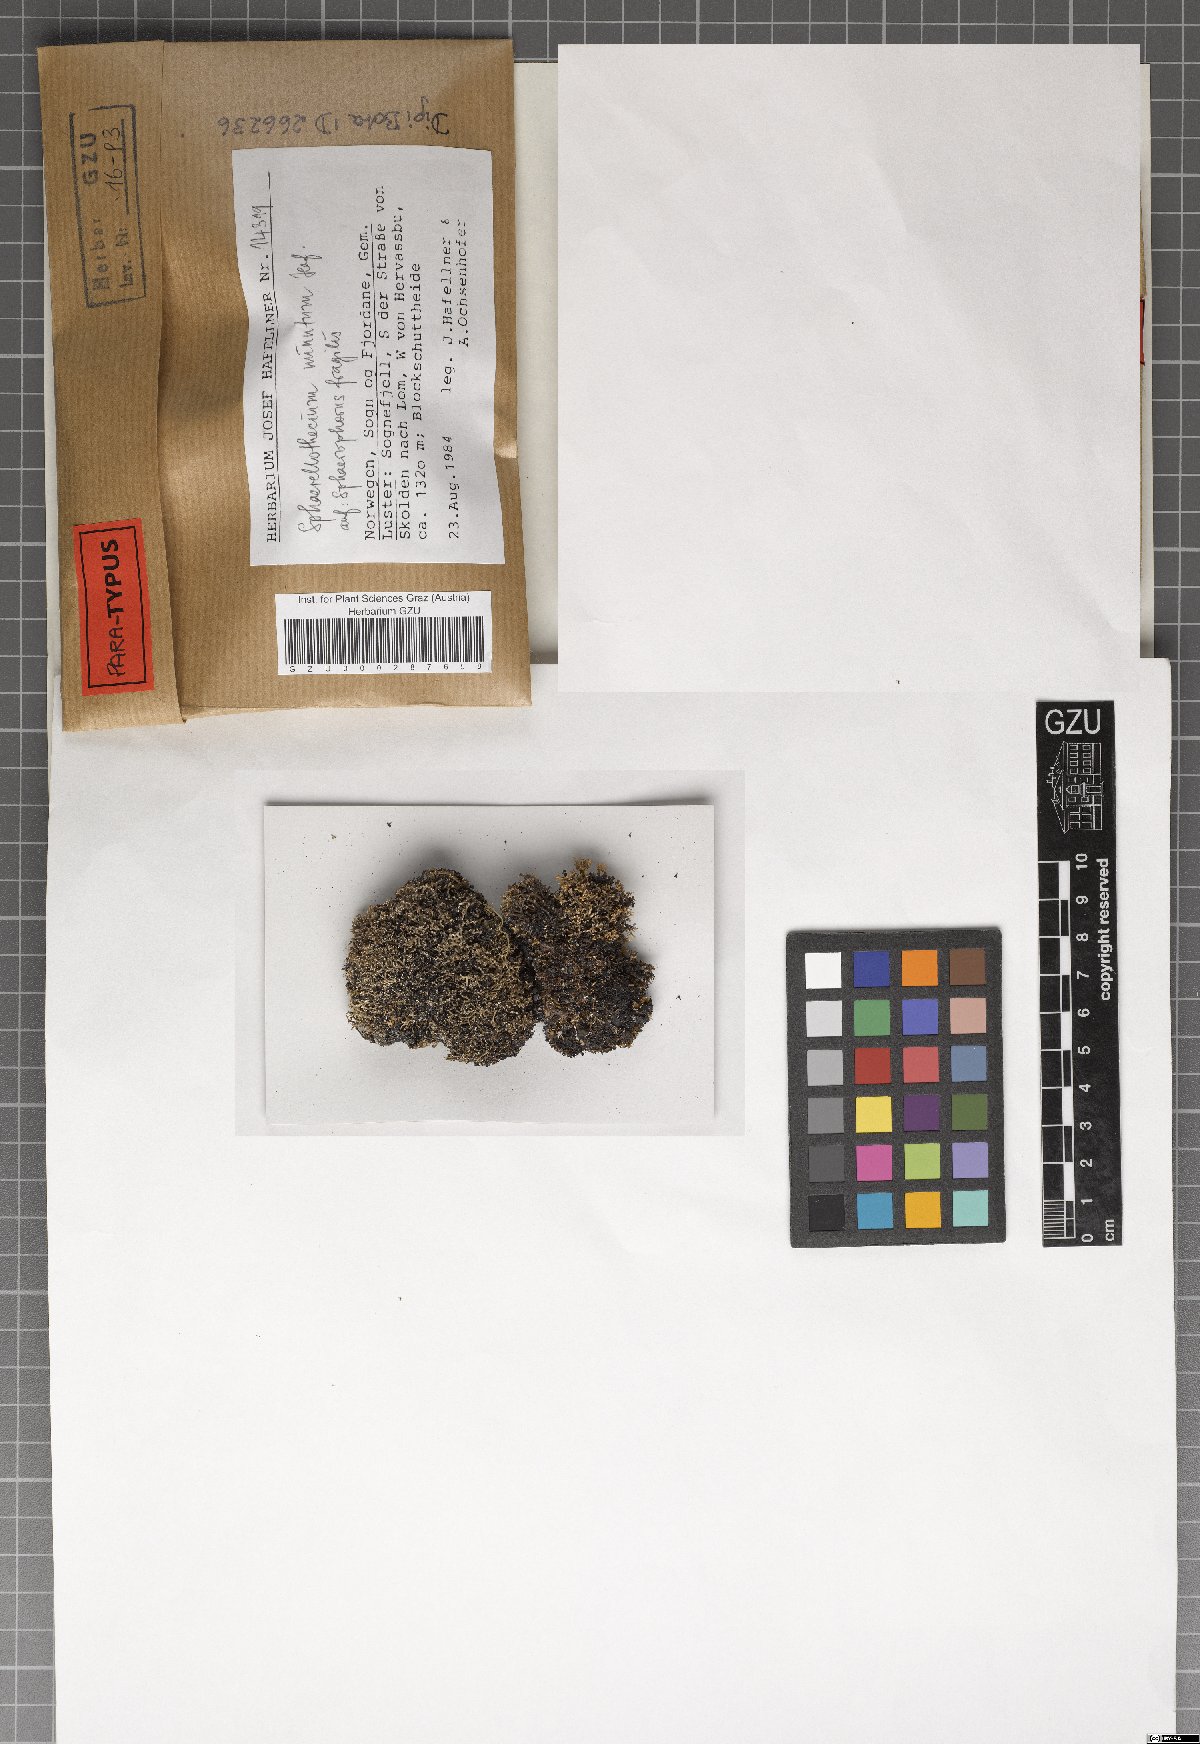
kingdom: Fungi
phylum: Ascomycota
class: Dothideomycetes
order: Mycosphaerellales
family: Mycosphaerellaceae
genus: Sphaerellothecium
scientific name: Sphaerellothecium minutum
